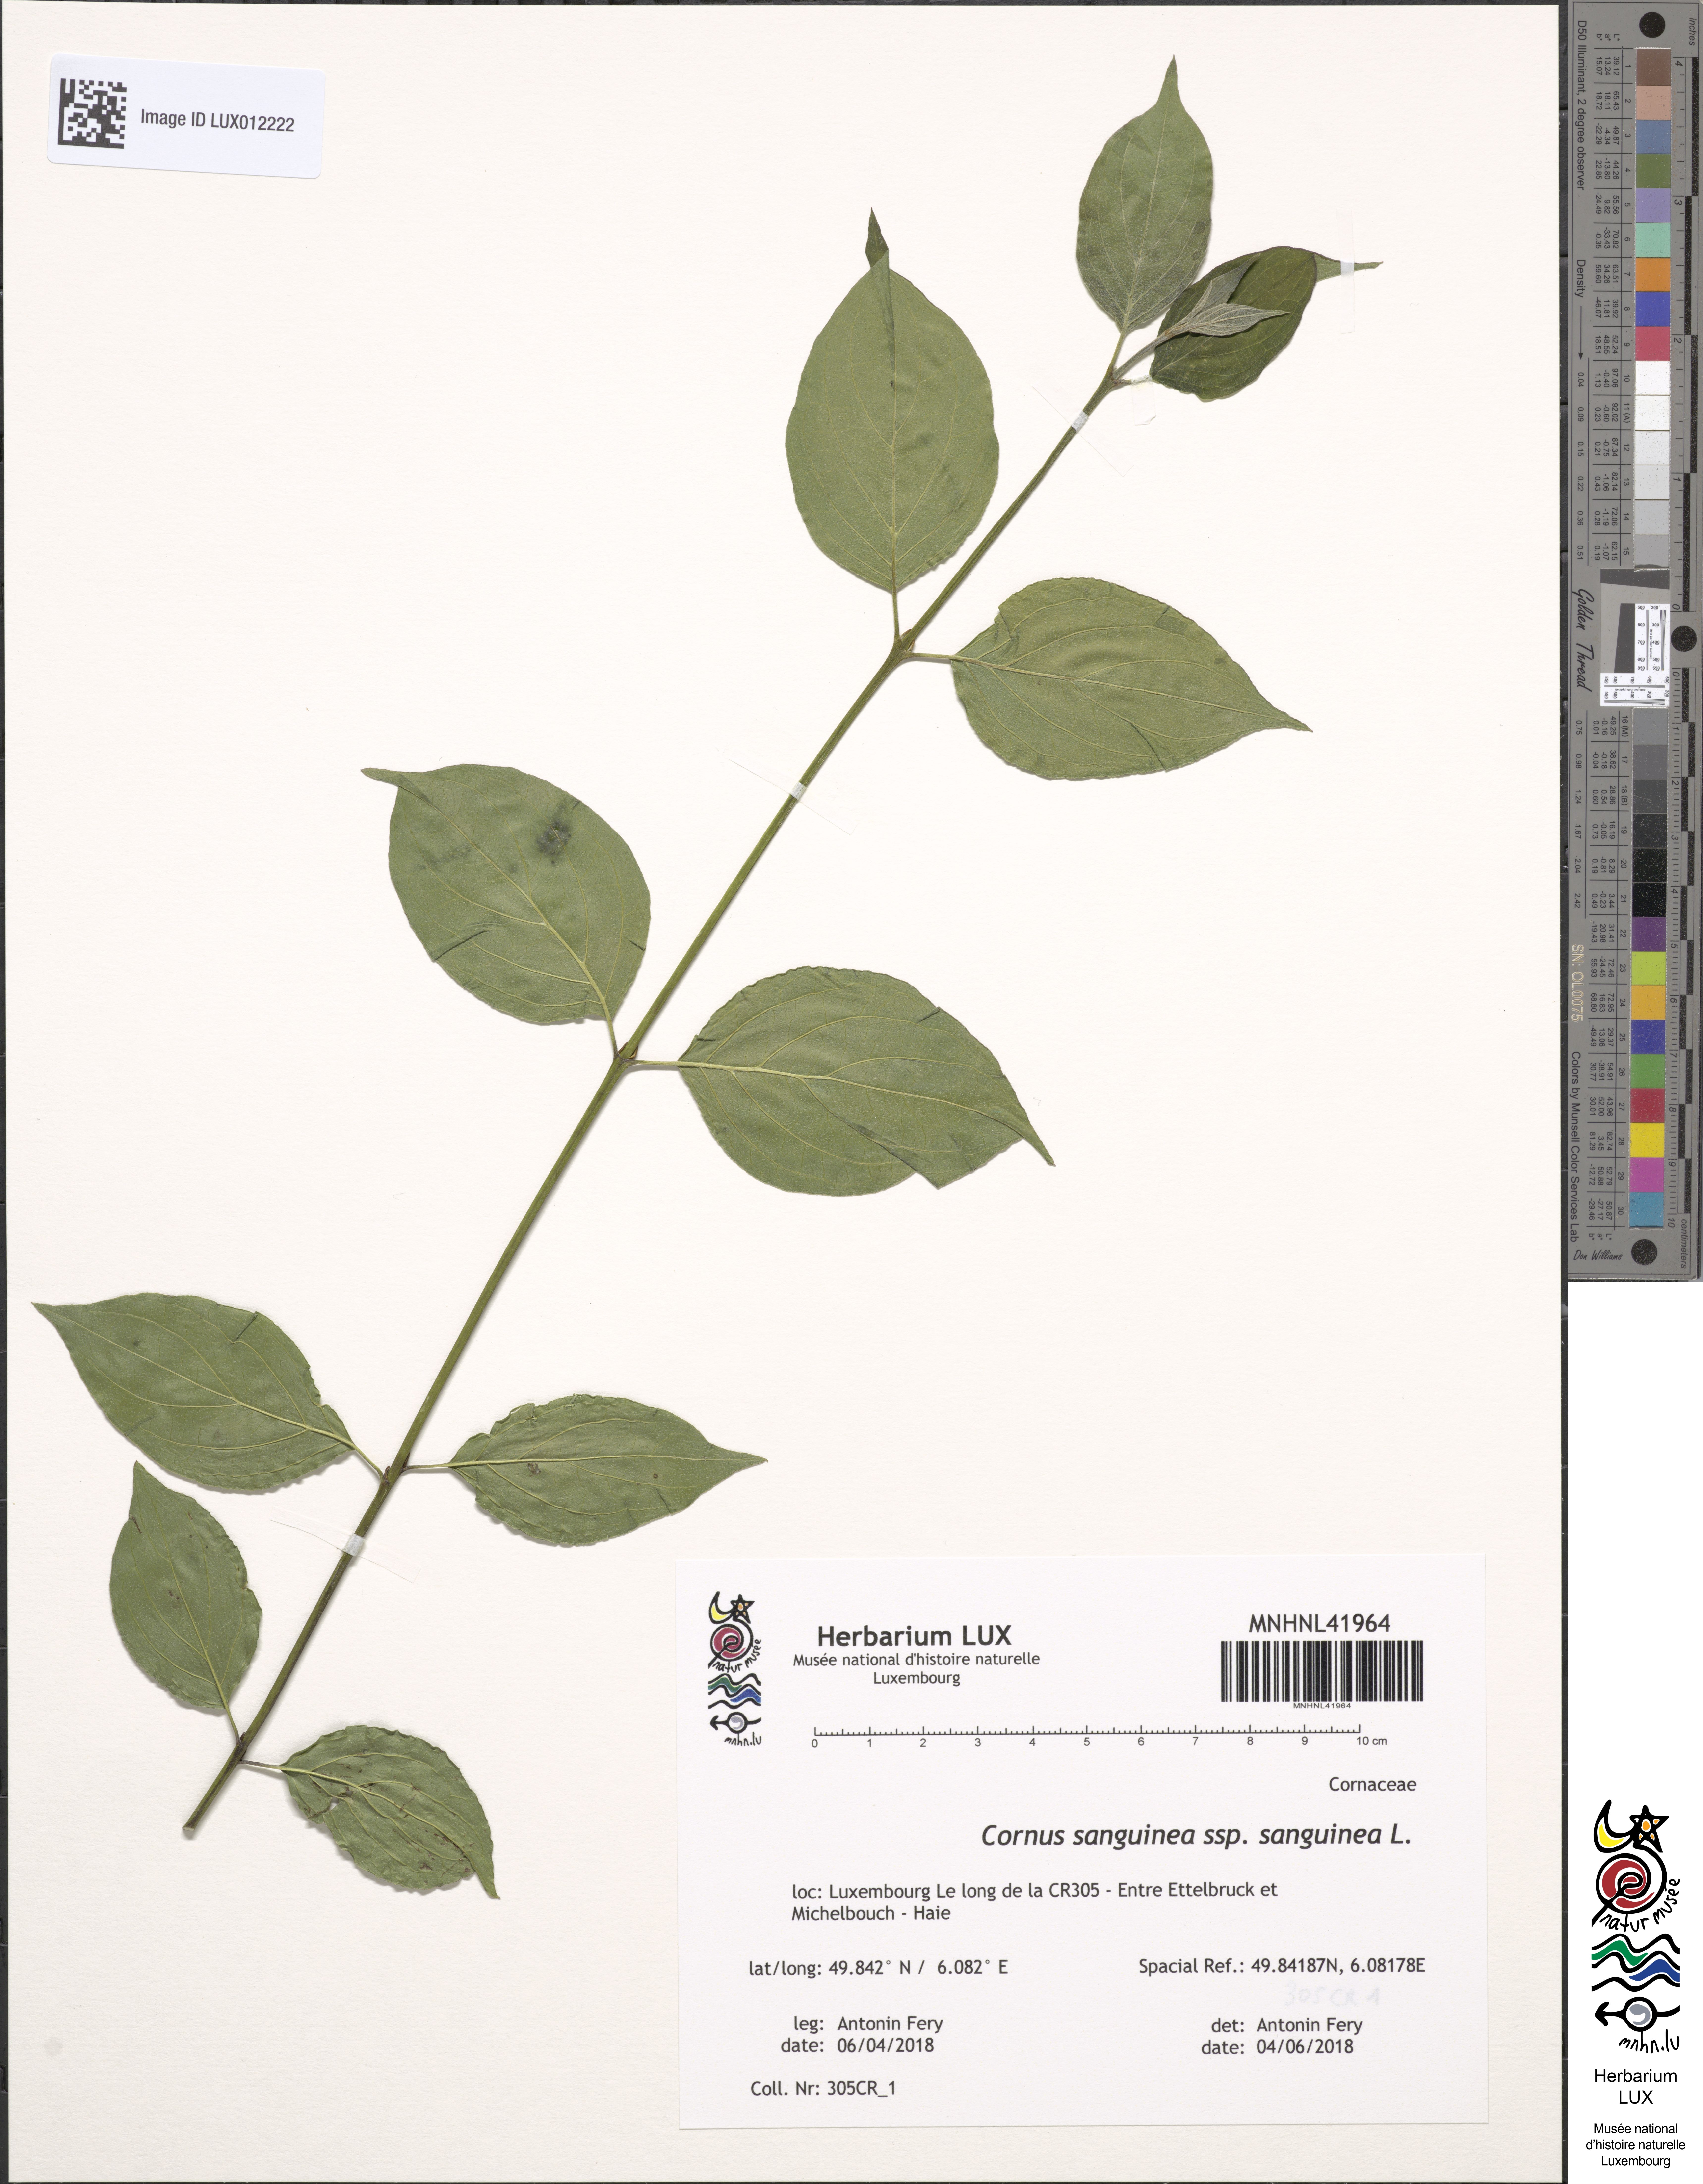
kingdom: Plantae
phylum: Tracheophyta
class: Magnoliopsida
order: Cornales
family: Cornaceae
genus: Cornus
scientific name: Cornus sanguinea
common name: Dogwood
